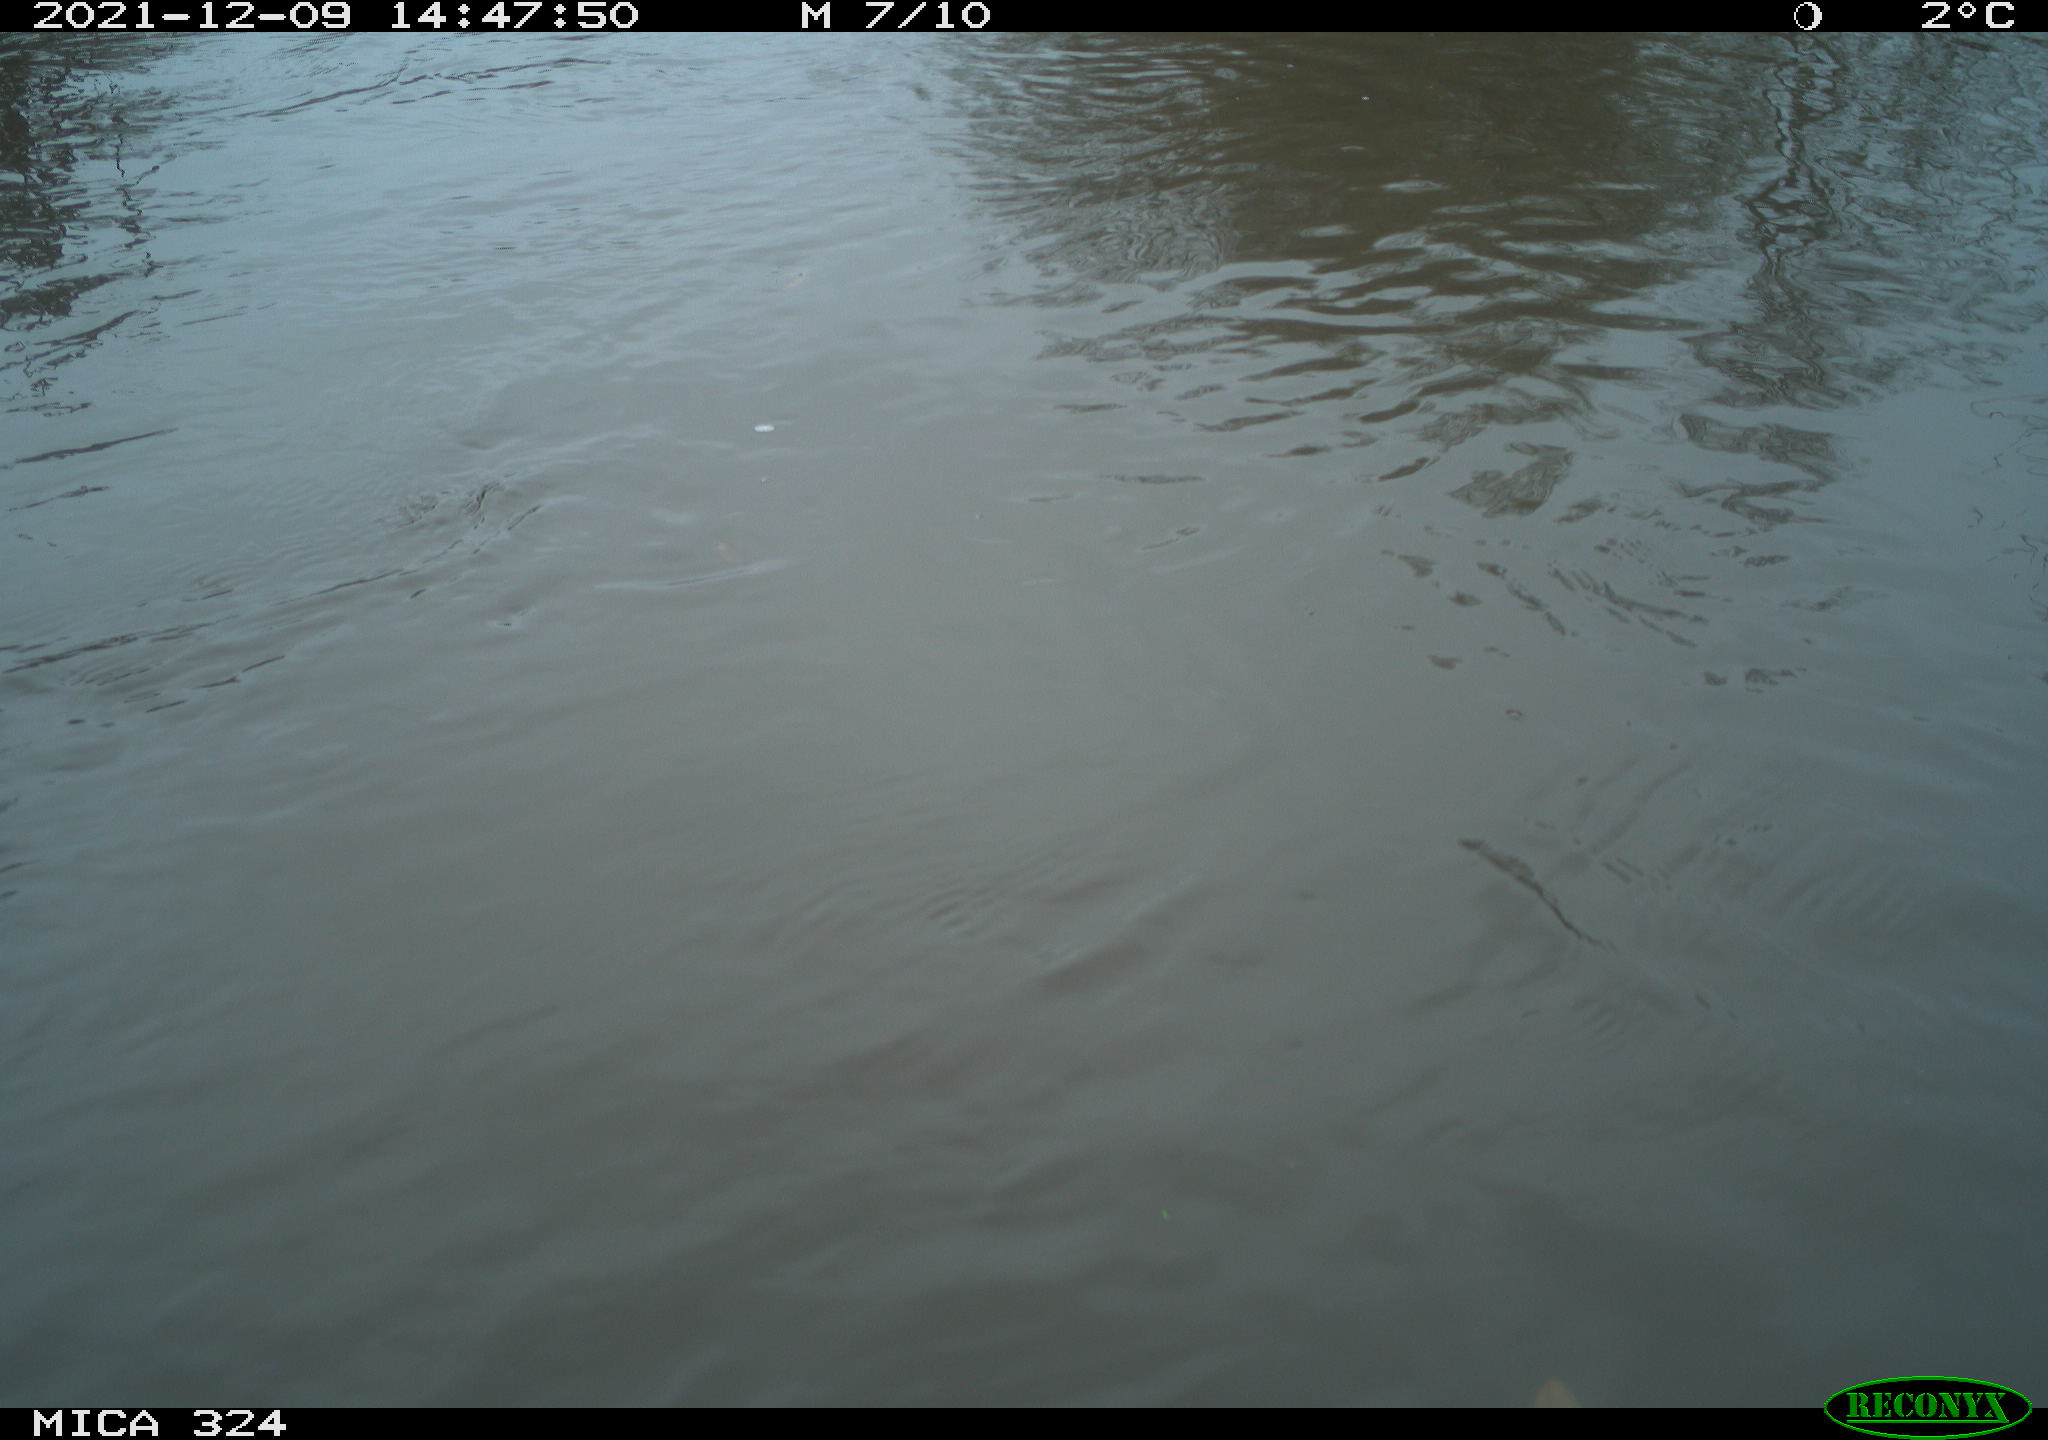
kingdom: Animalia
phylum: Chordata
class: Mammalia
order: Rodentia
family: Cricetidae
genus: Ondatra
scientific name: Ondatra zibethicus
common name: Muskrat
